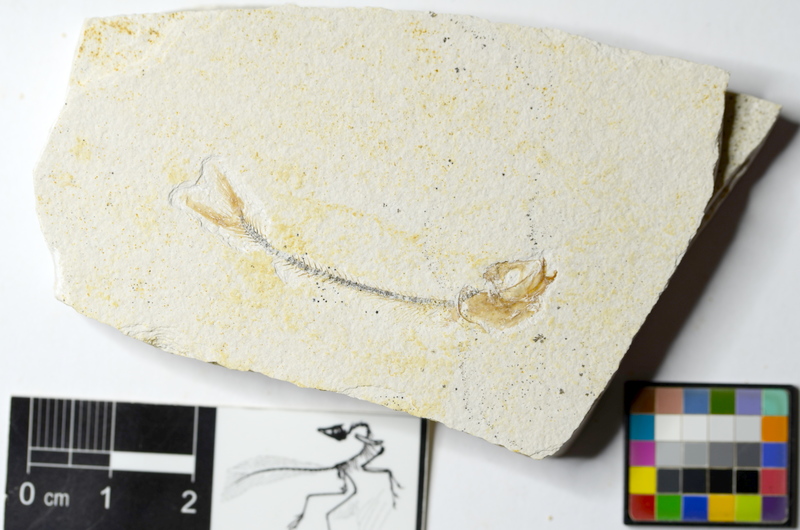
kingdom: Animalia
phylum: Chordata
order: Salmoniformes
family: Orthogonikleithridae
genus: Orthogonikleithrus
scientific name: Orthogonikleithrus hoelli
